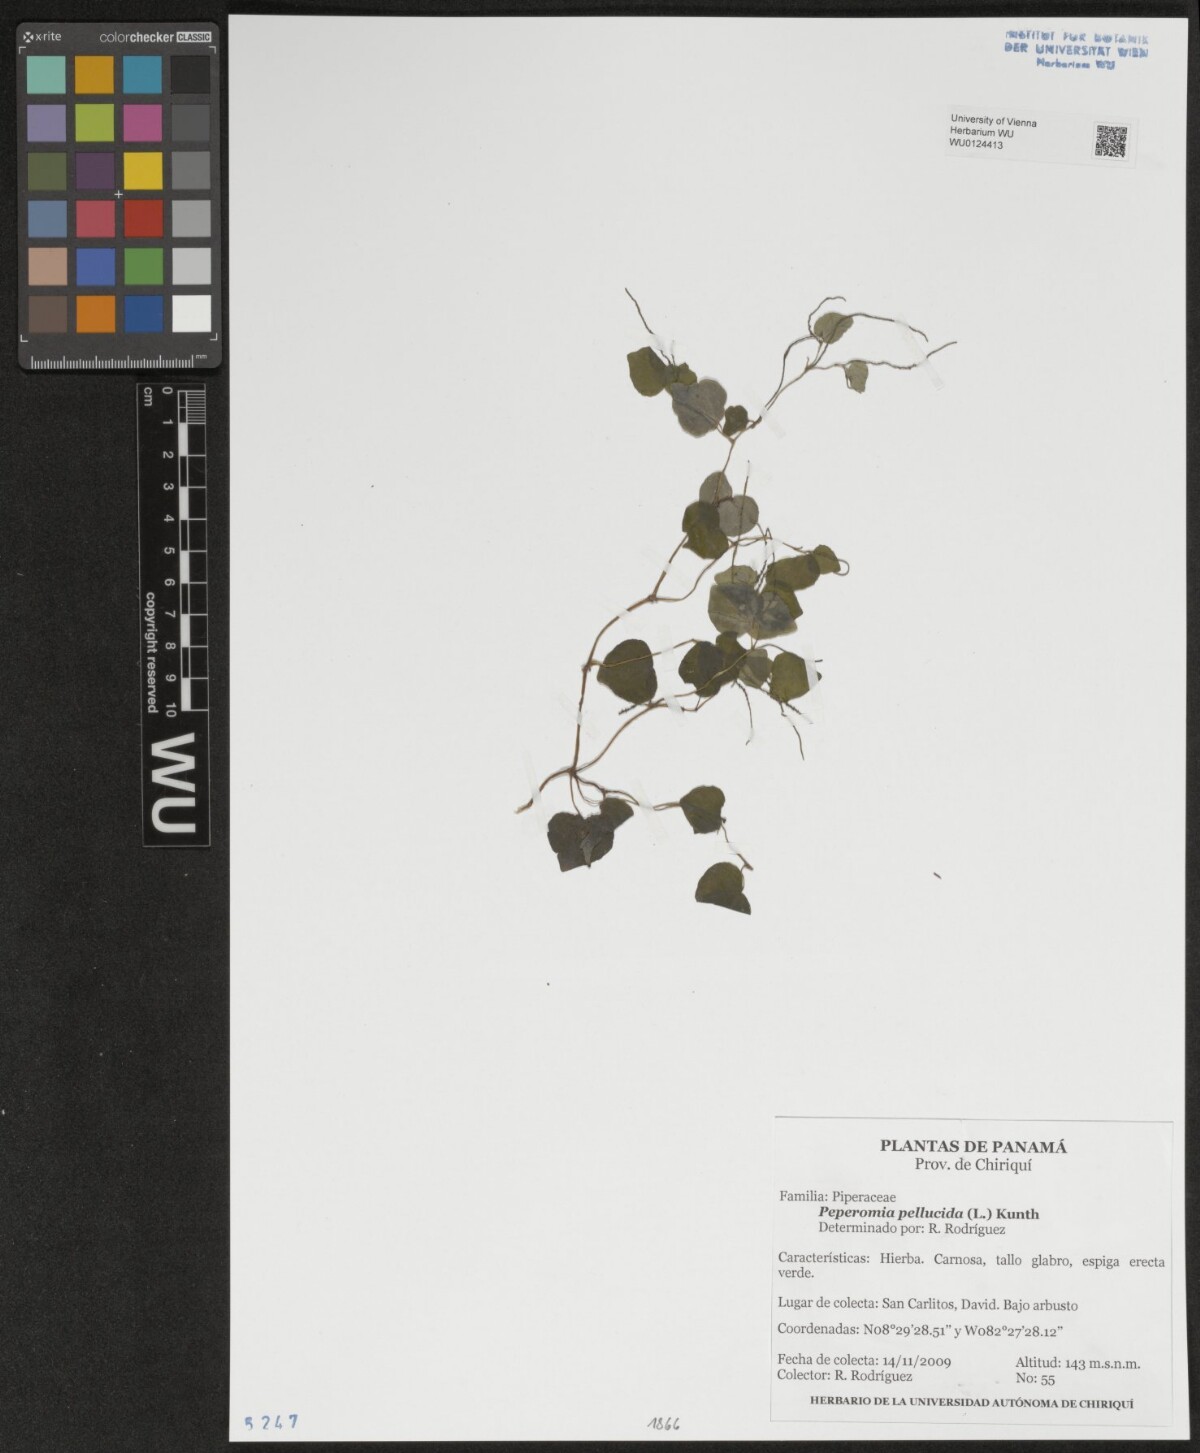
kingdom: Plantae
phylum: Tracheophyta
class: Magnoliopsida
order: Piperales
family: Piperaceae
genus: Peperomia
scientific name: Peperomia pellucida
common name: Man to man
